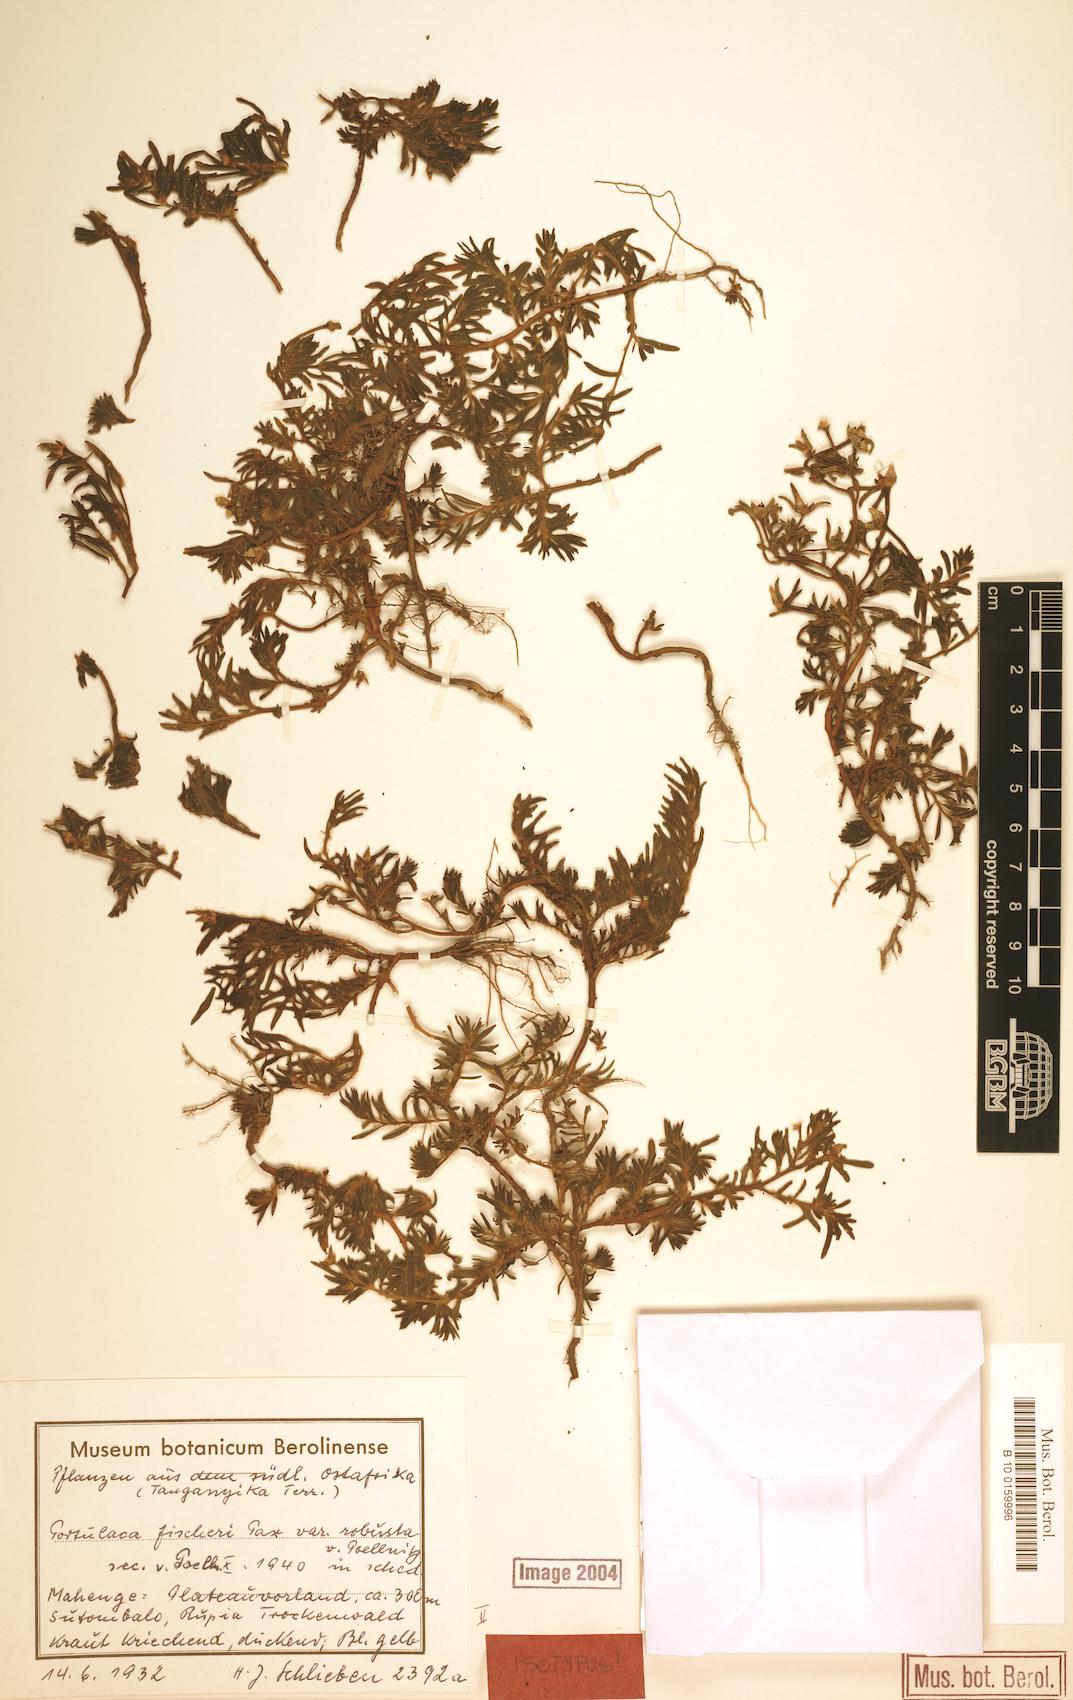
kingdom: Plantae
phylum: Tracheophyta
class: Magnoliopsida
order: Caryophyllales
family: Portulacaceae
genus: Portulaca
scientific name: Portulaca foliosa
